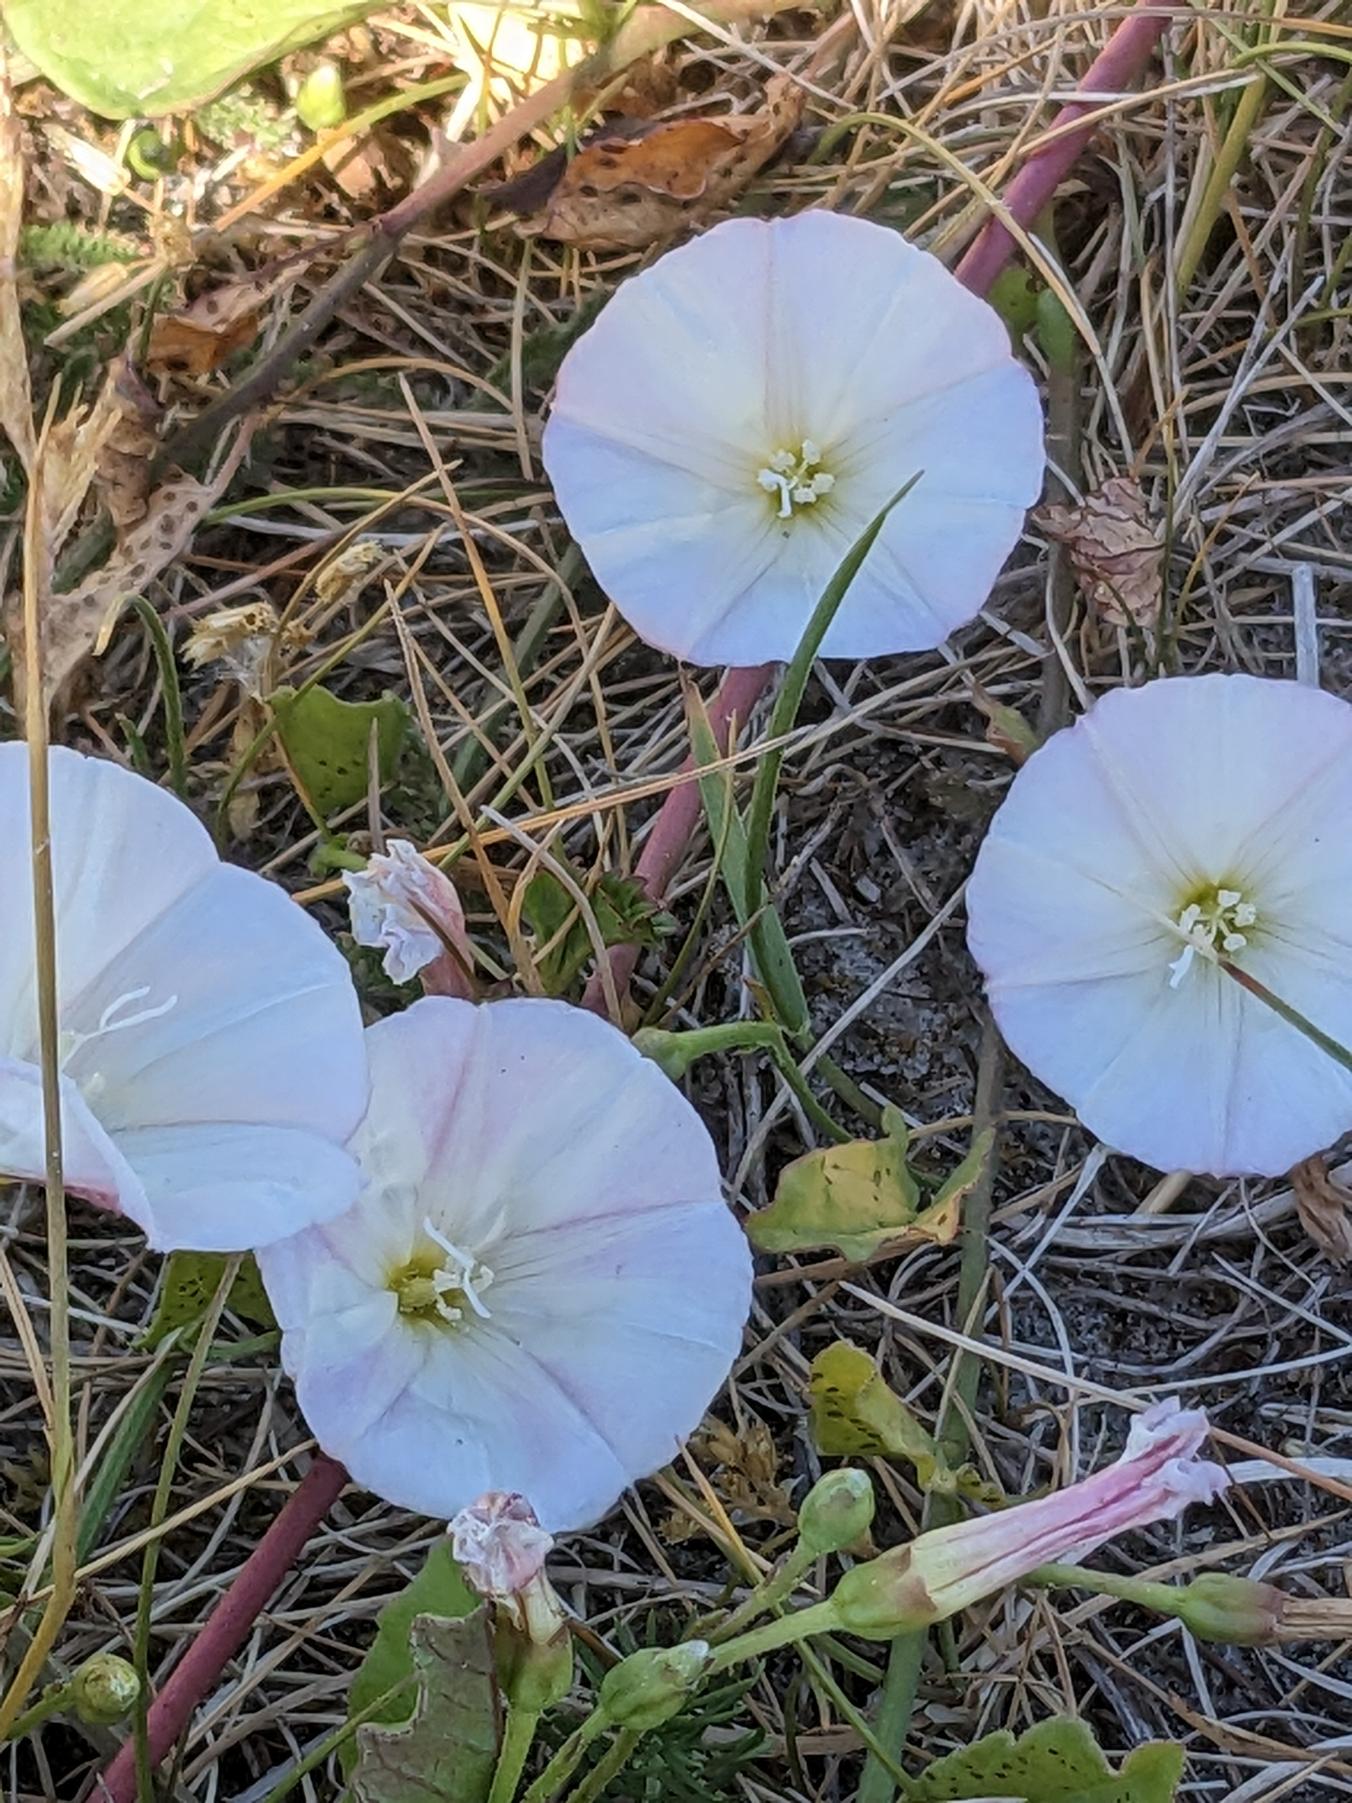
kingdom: Plantae
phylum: Tracheophyta
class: Magnoliopsida
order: Solanales
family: Convolvulaceae
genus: Calystegia
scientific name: Calystegia sepium
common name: Gærde-snerle
